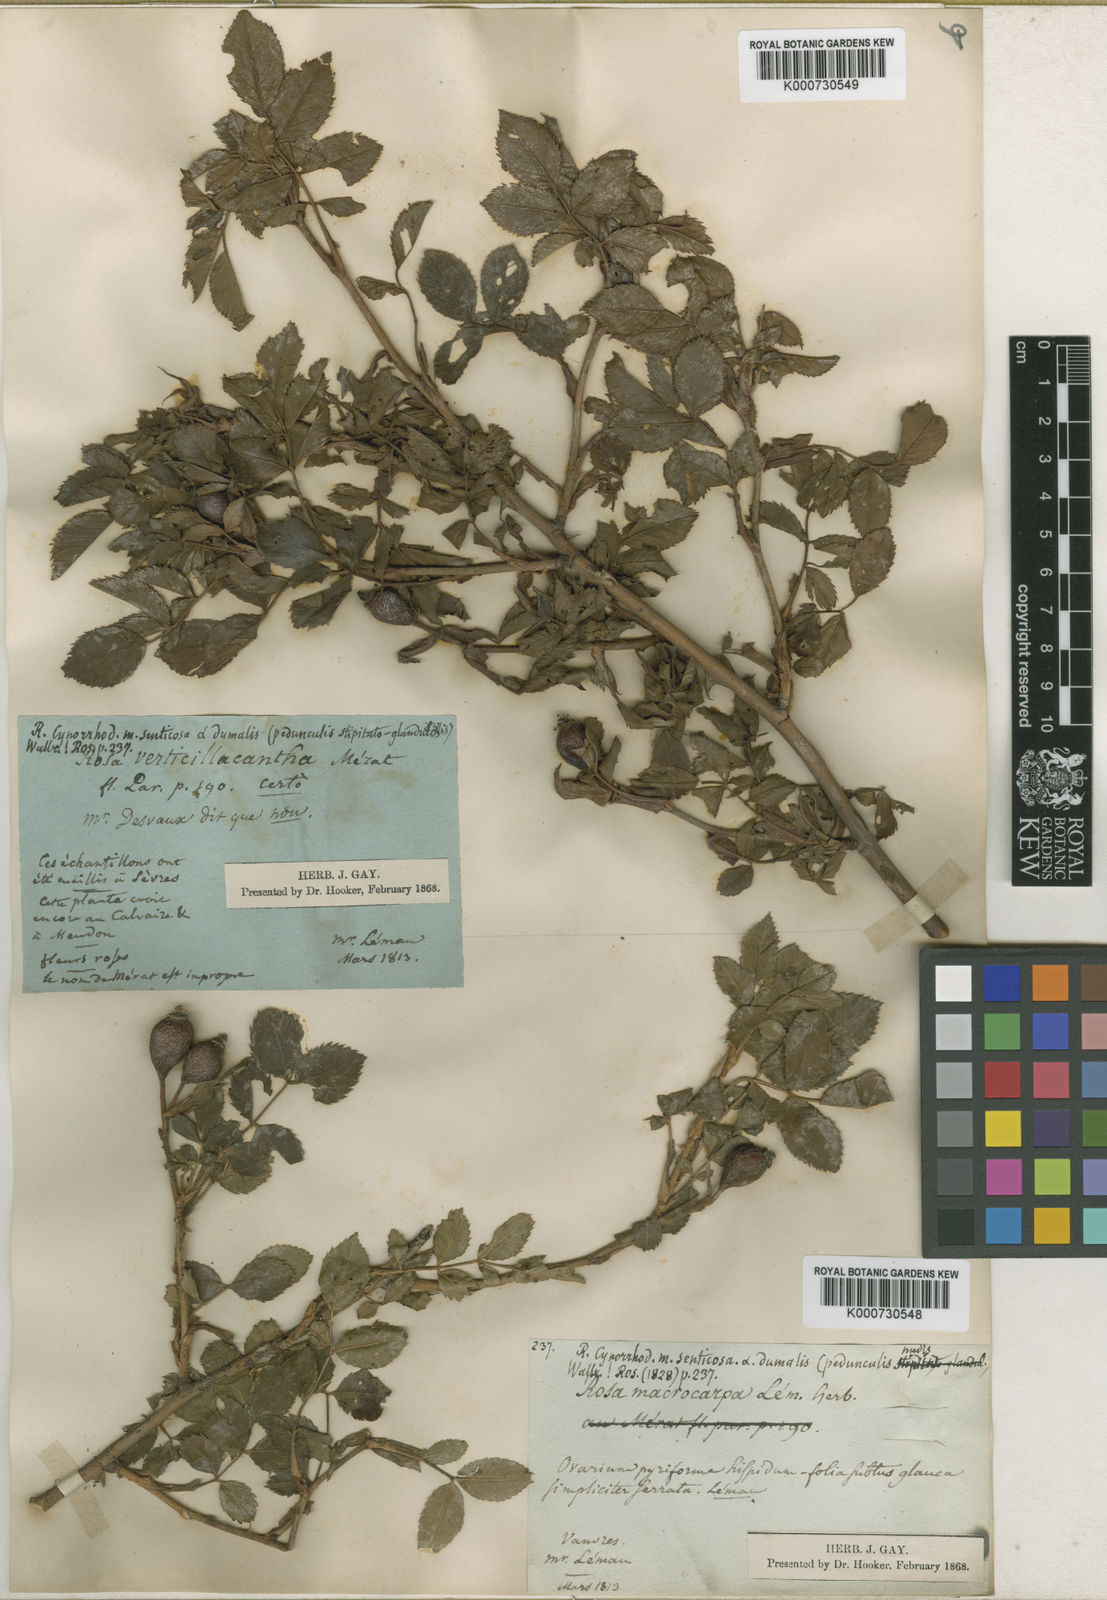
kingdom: Plantae
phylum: Tracheophyta
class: Magnoliopsida
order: Rosales
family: Rosaceae
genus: Rosa
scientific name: Rosa canina
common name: Dog rose
